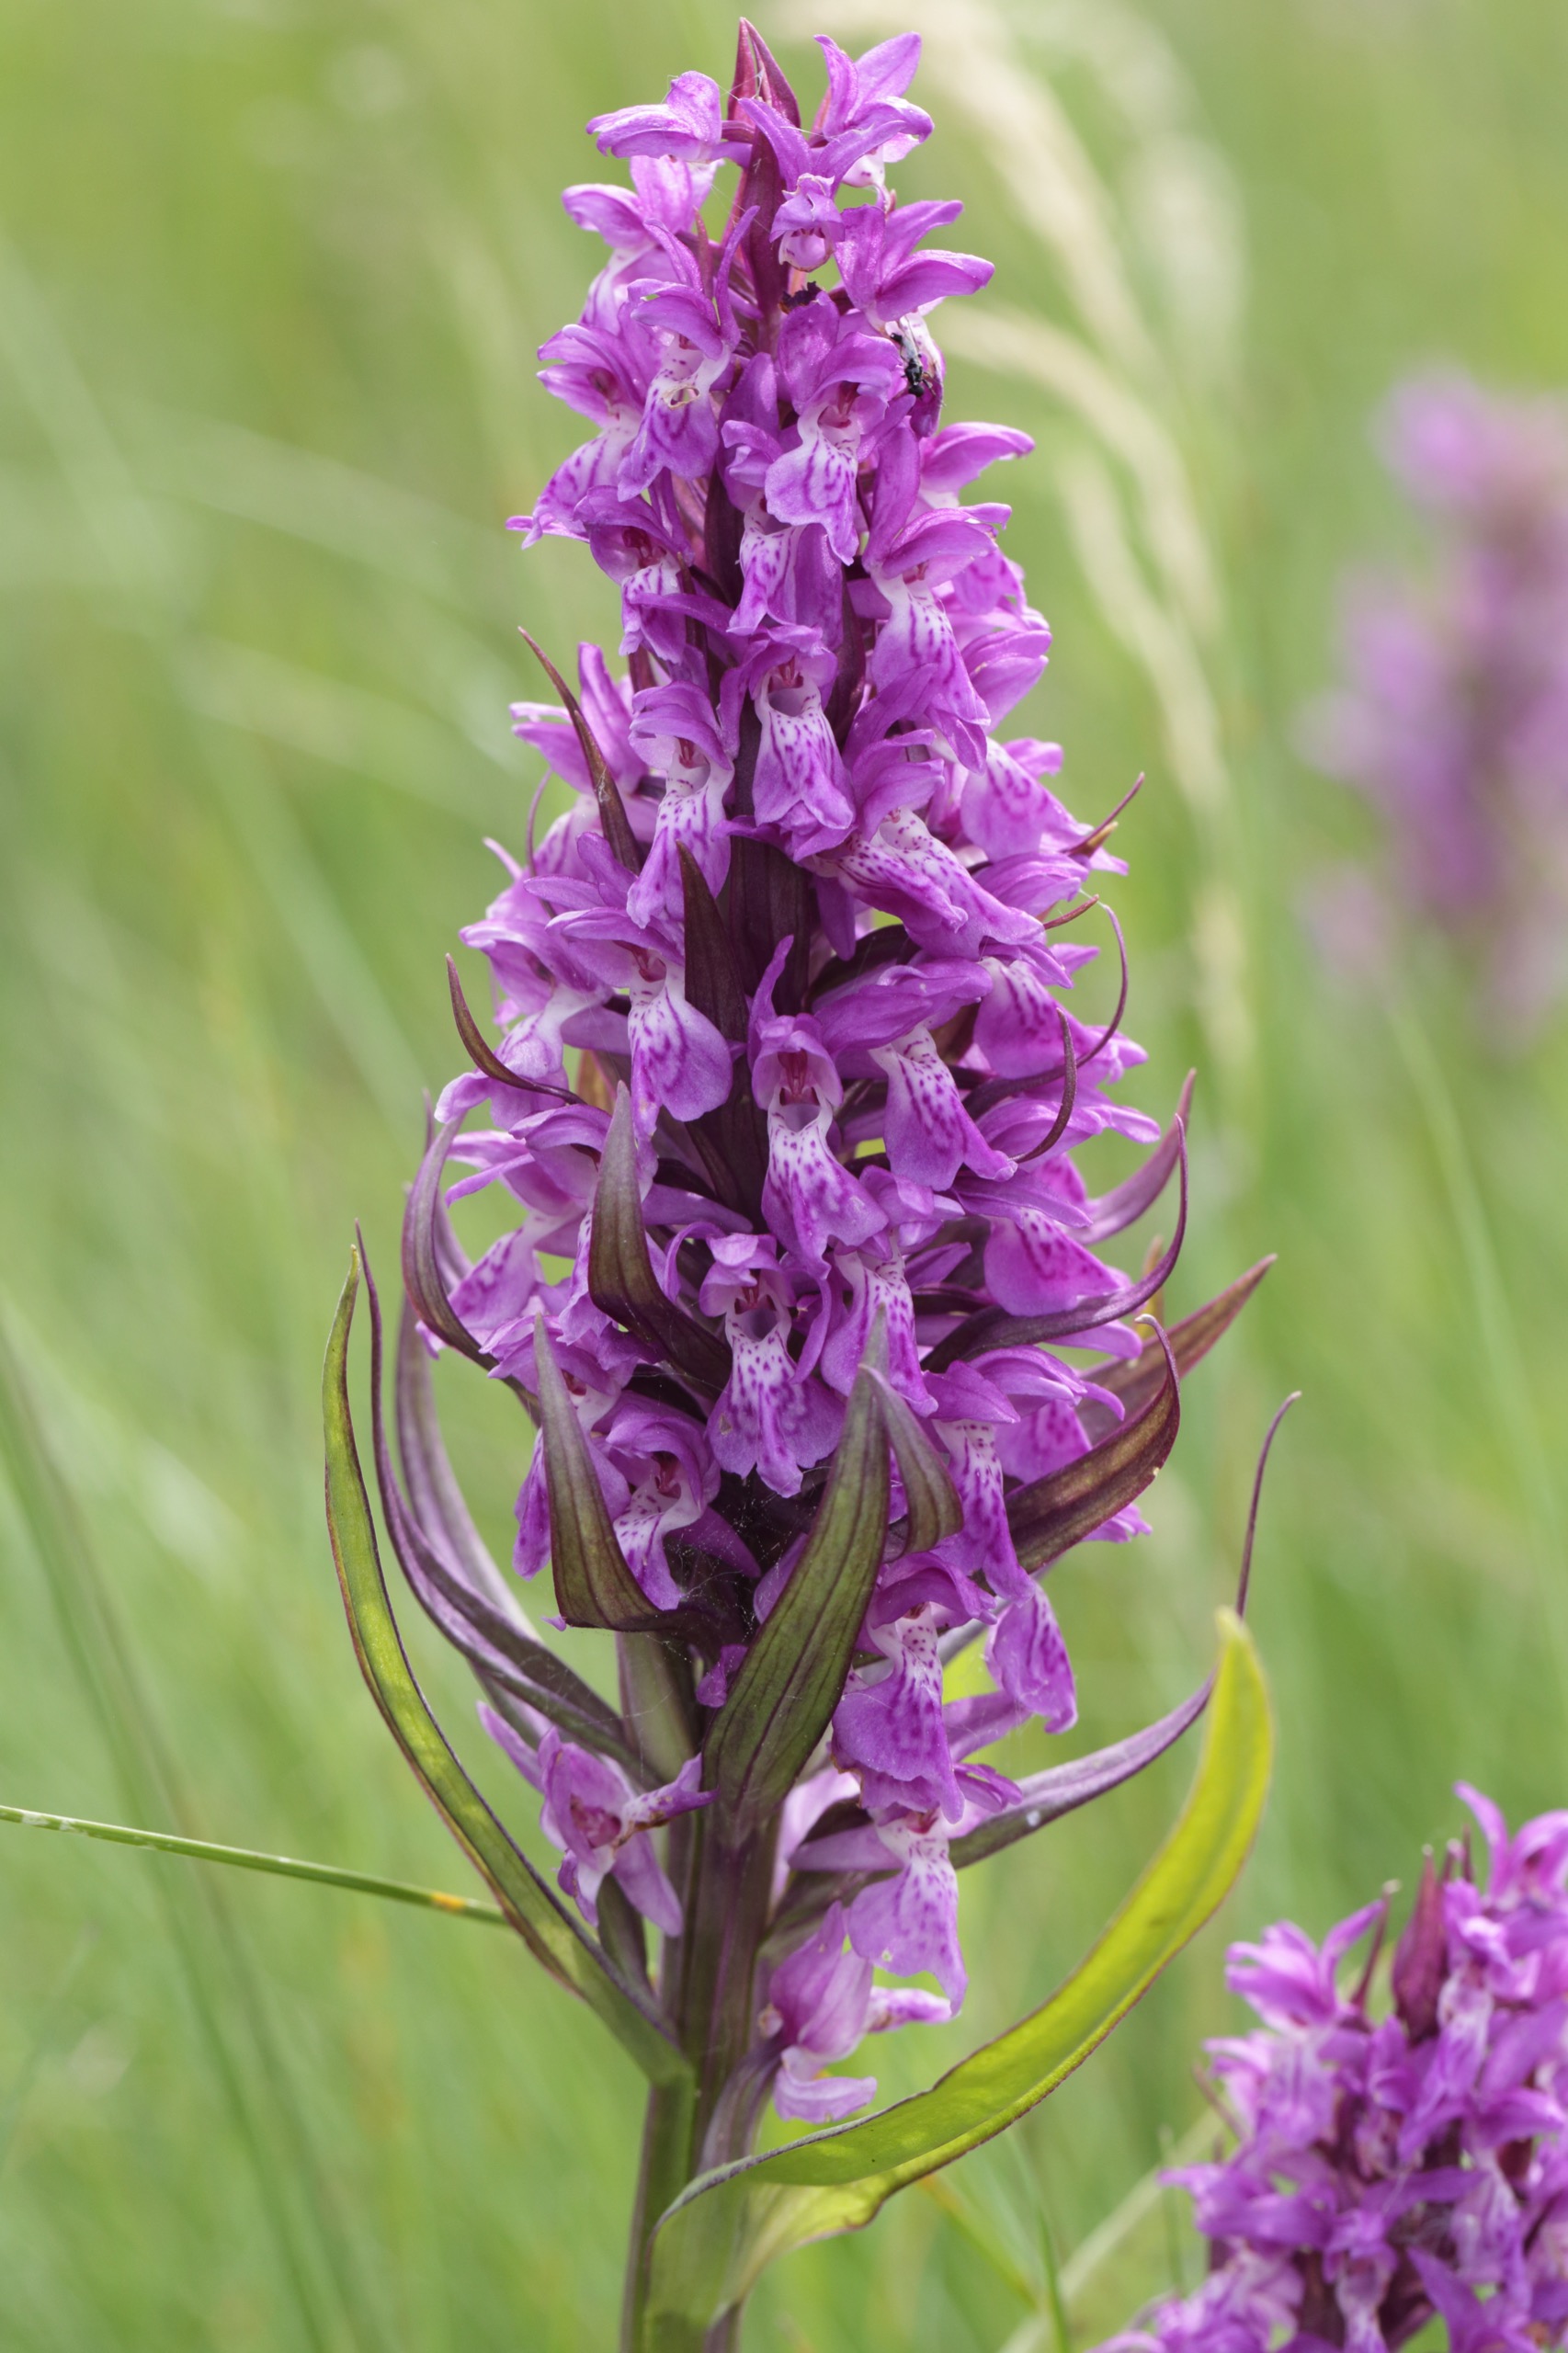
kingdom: Plantae
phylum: Tracheophyta
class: Liliopsida
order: Asparagales
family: Orchidaceae
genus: Dactylorhiza
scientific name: Dactylorhiza majalis
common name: Maj-gøgeurt
